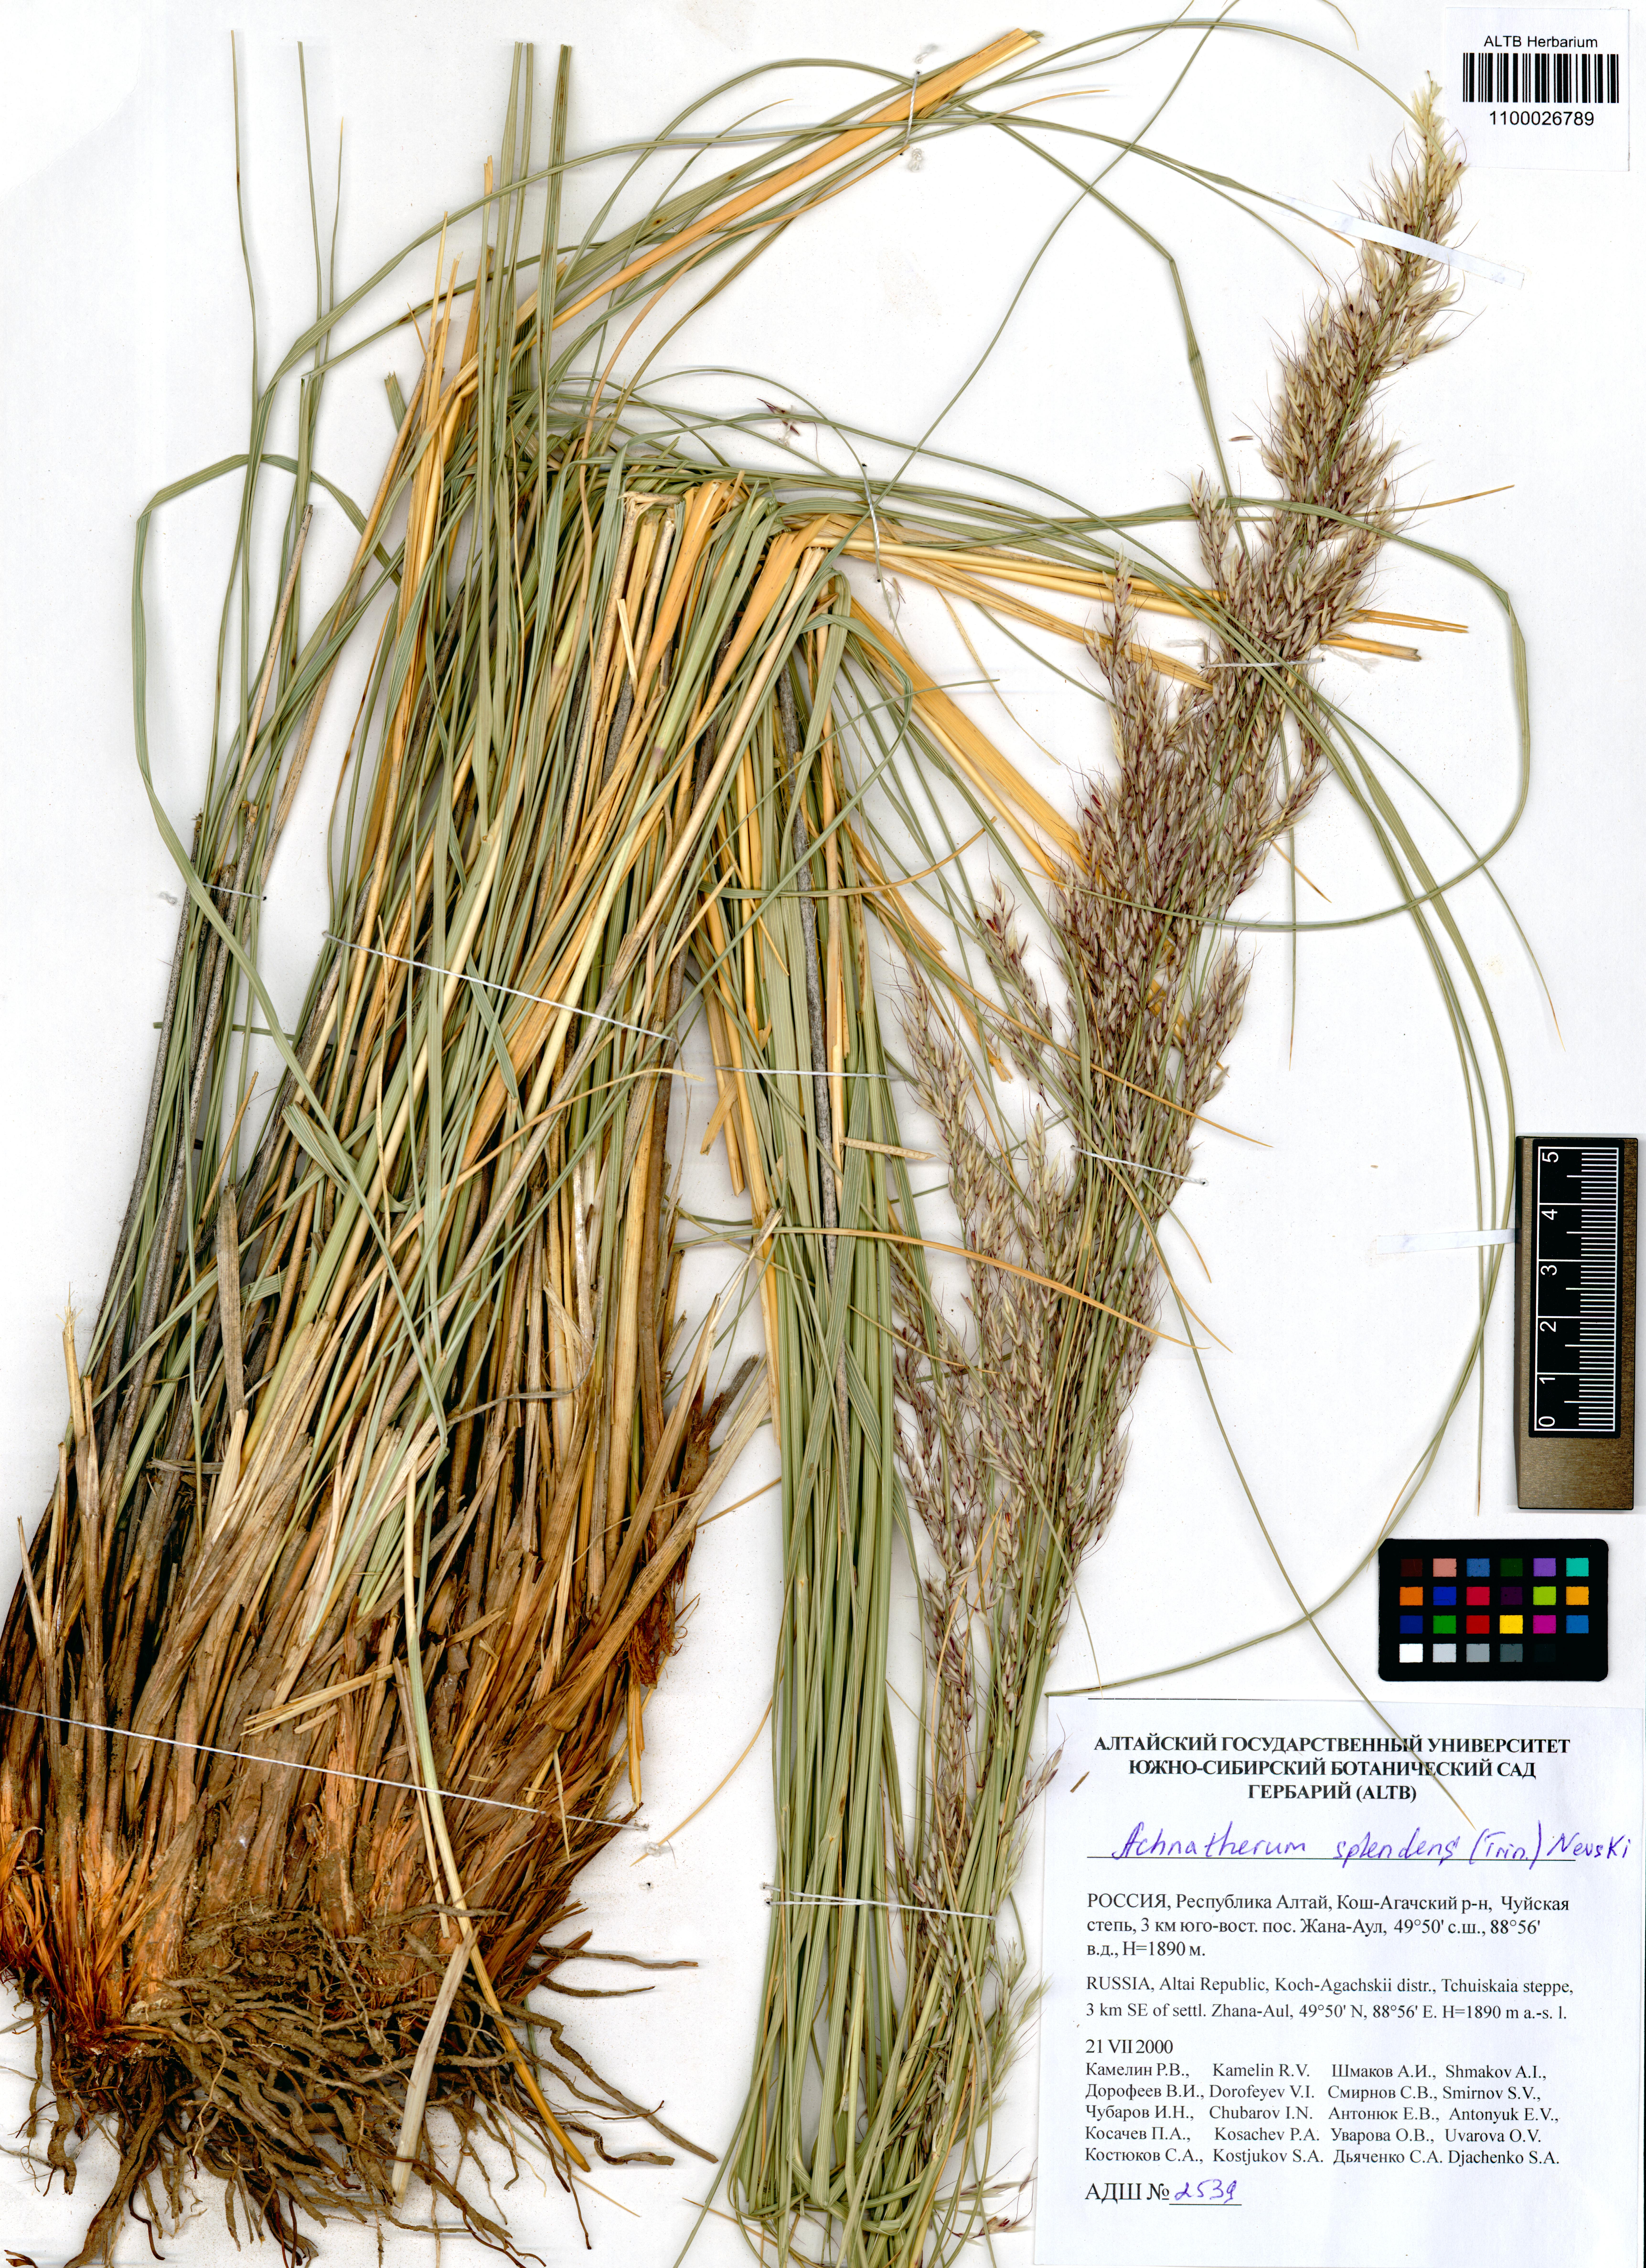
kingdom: Plantae
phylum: Tracheophyta
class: Liliopsida
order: Poales
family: Poaceae
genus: Neotrinia
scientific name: Neotrinia splendens
